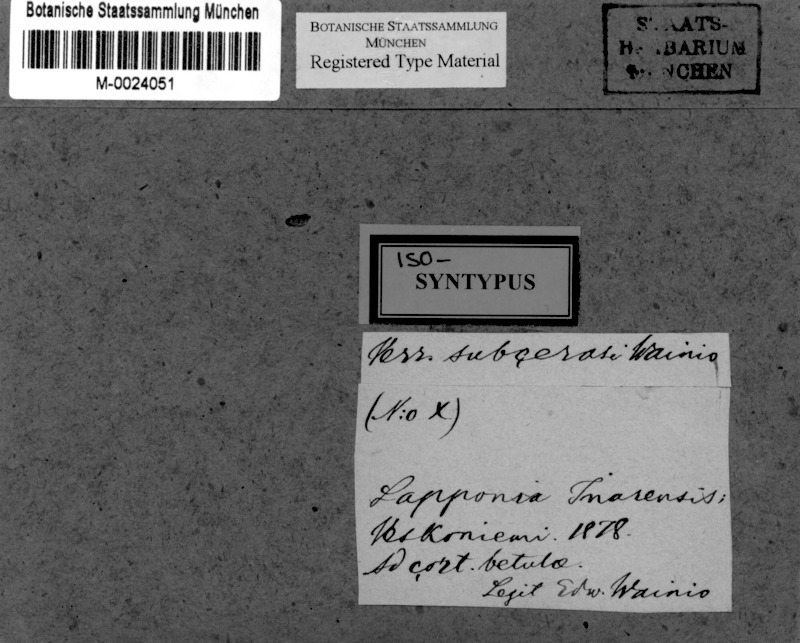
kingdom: Fungi
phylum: Ascomycota
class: Dothideomycetes
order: Trypetheliales
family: Trypetheliaceae
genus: Arthopyrenia
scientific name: Arthopyrenia subcerasi
